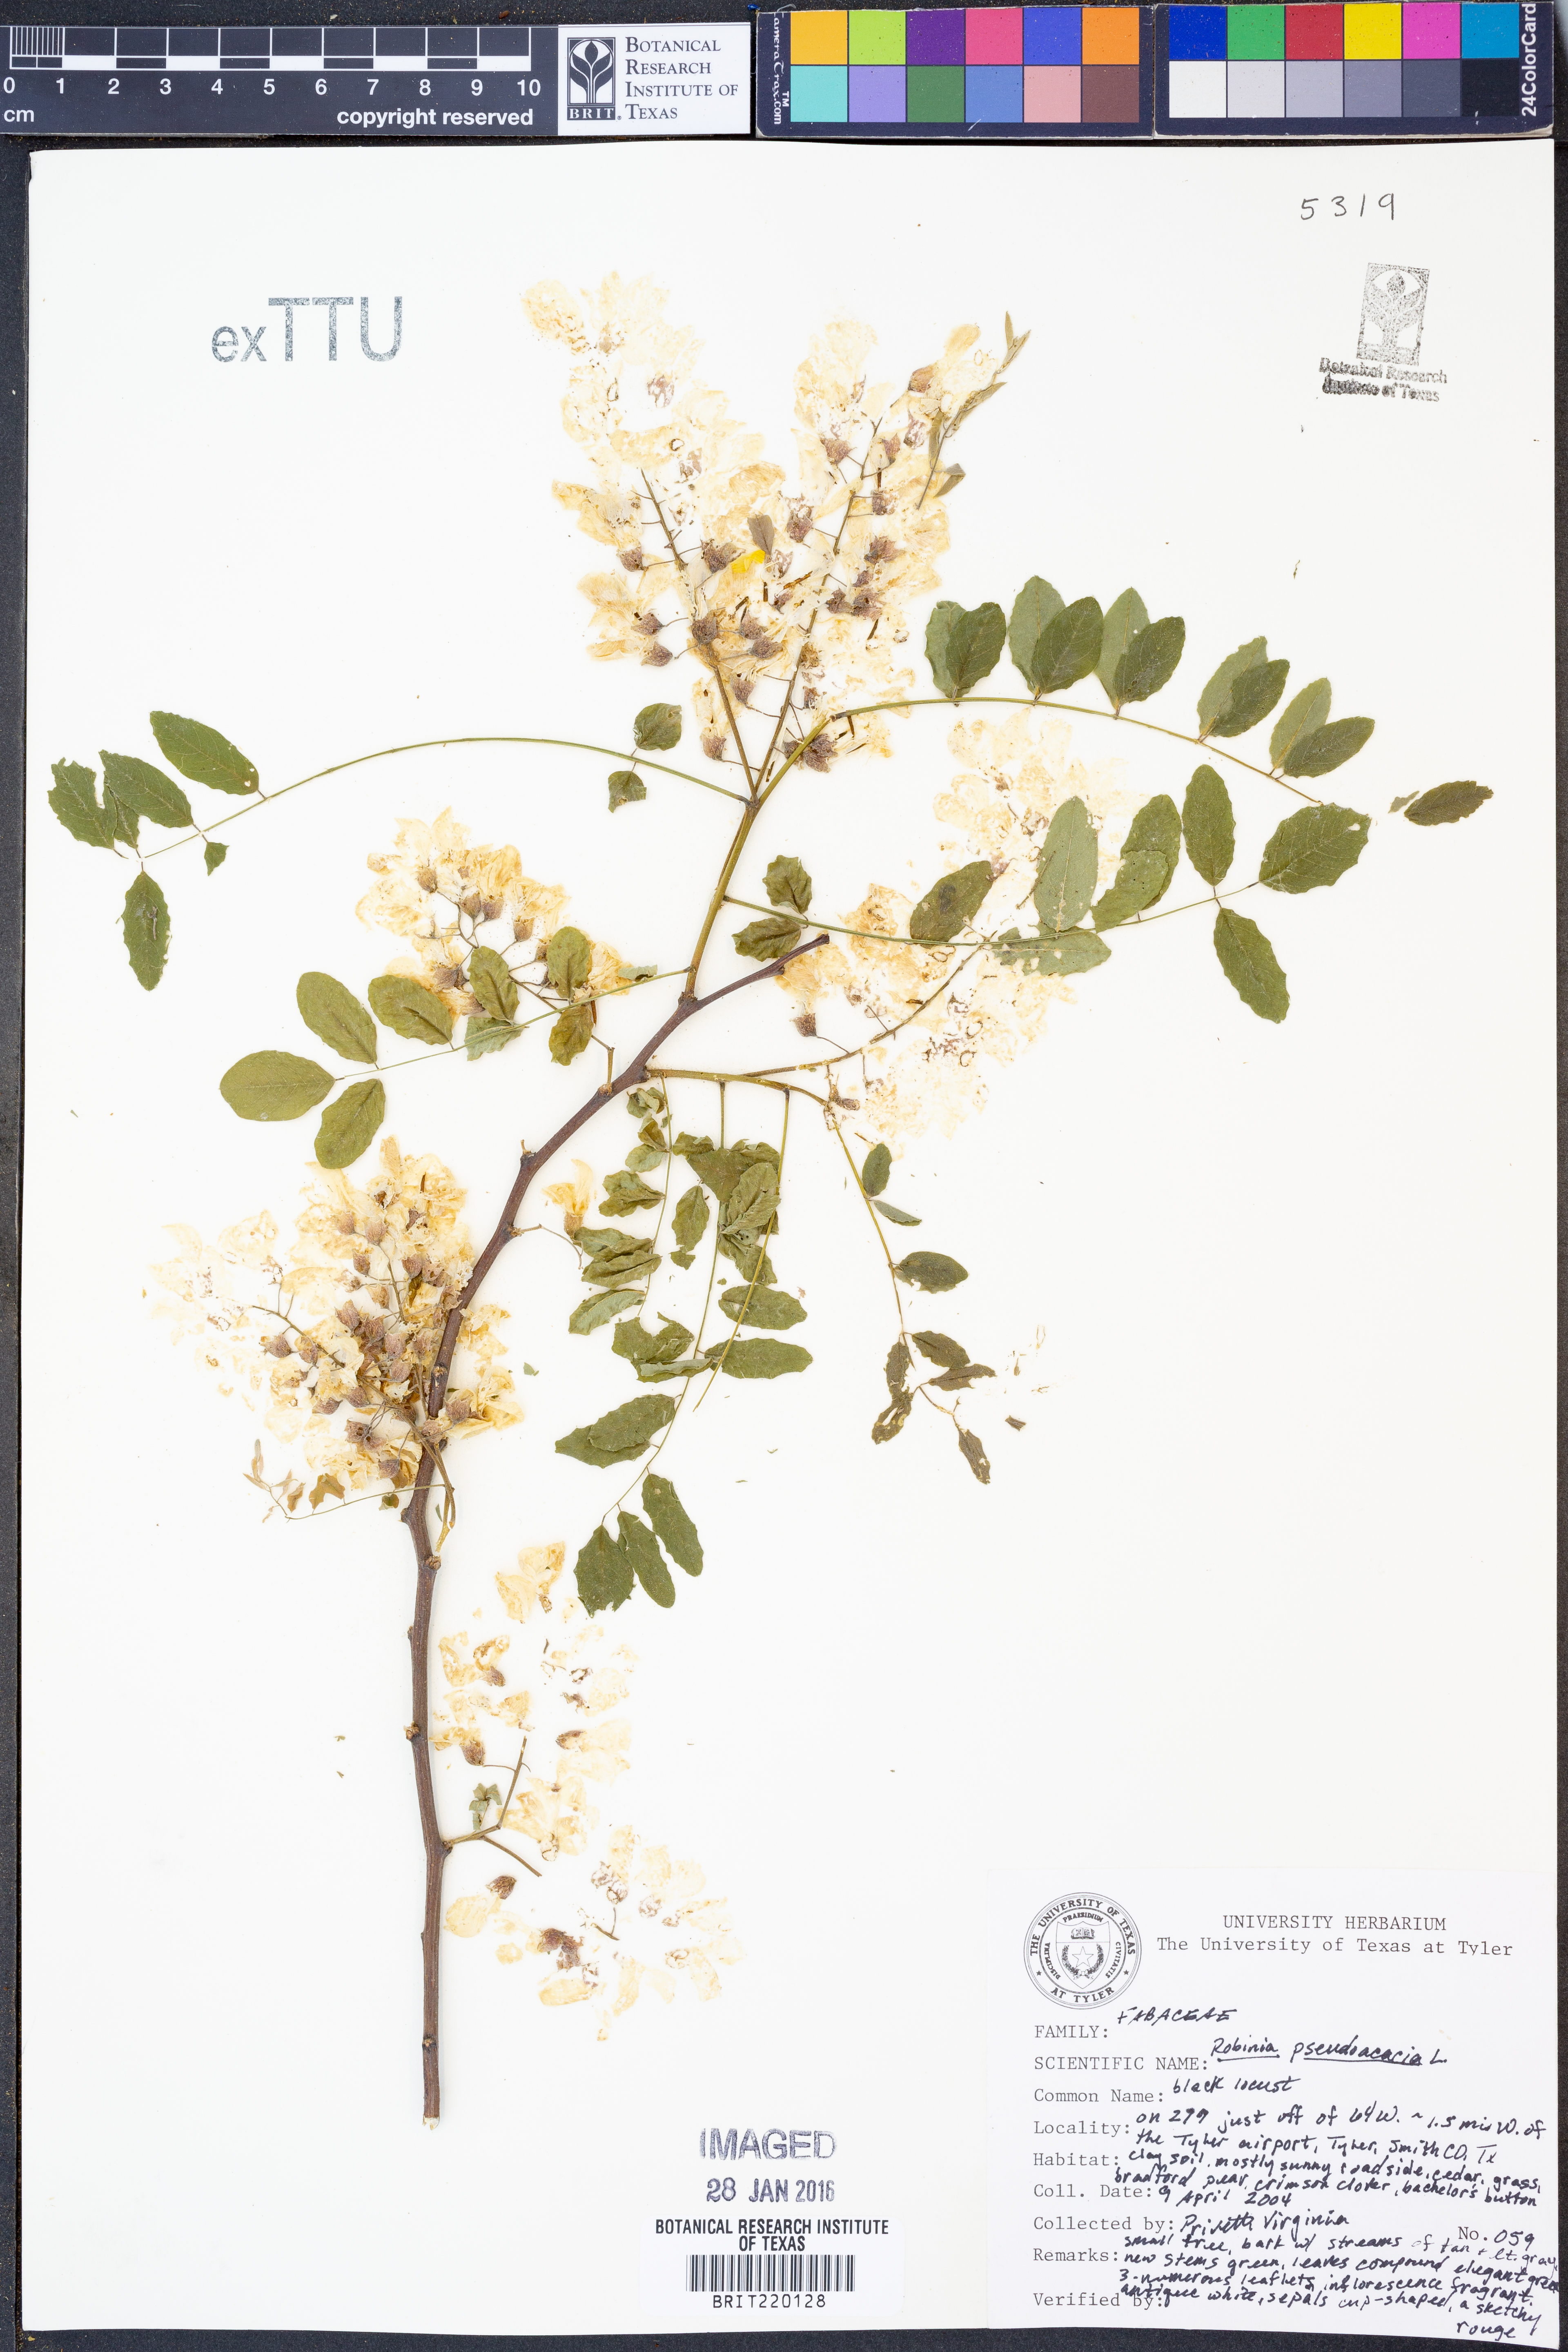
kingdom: Plantae
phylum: Tracheophyta
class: Magnoliopsida
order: Fabales
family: Fabaceae
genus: Robinia
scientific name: Robinia pseudoacacia
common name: Black locust
